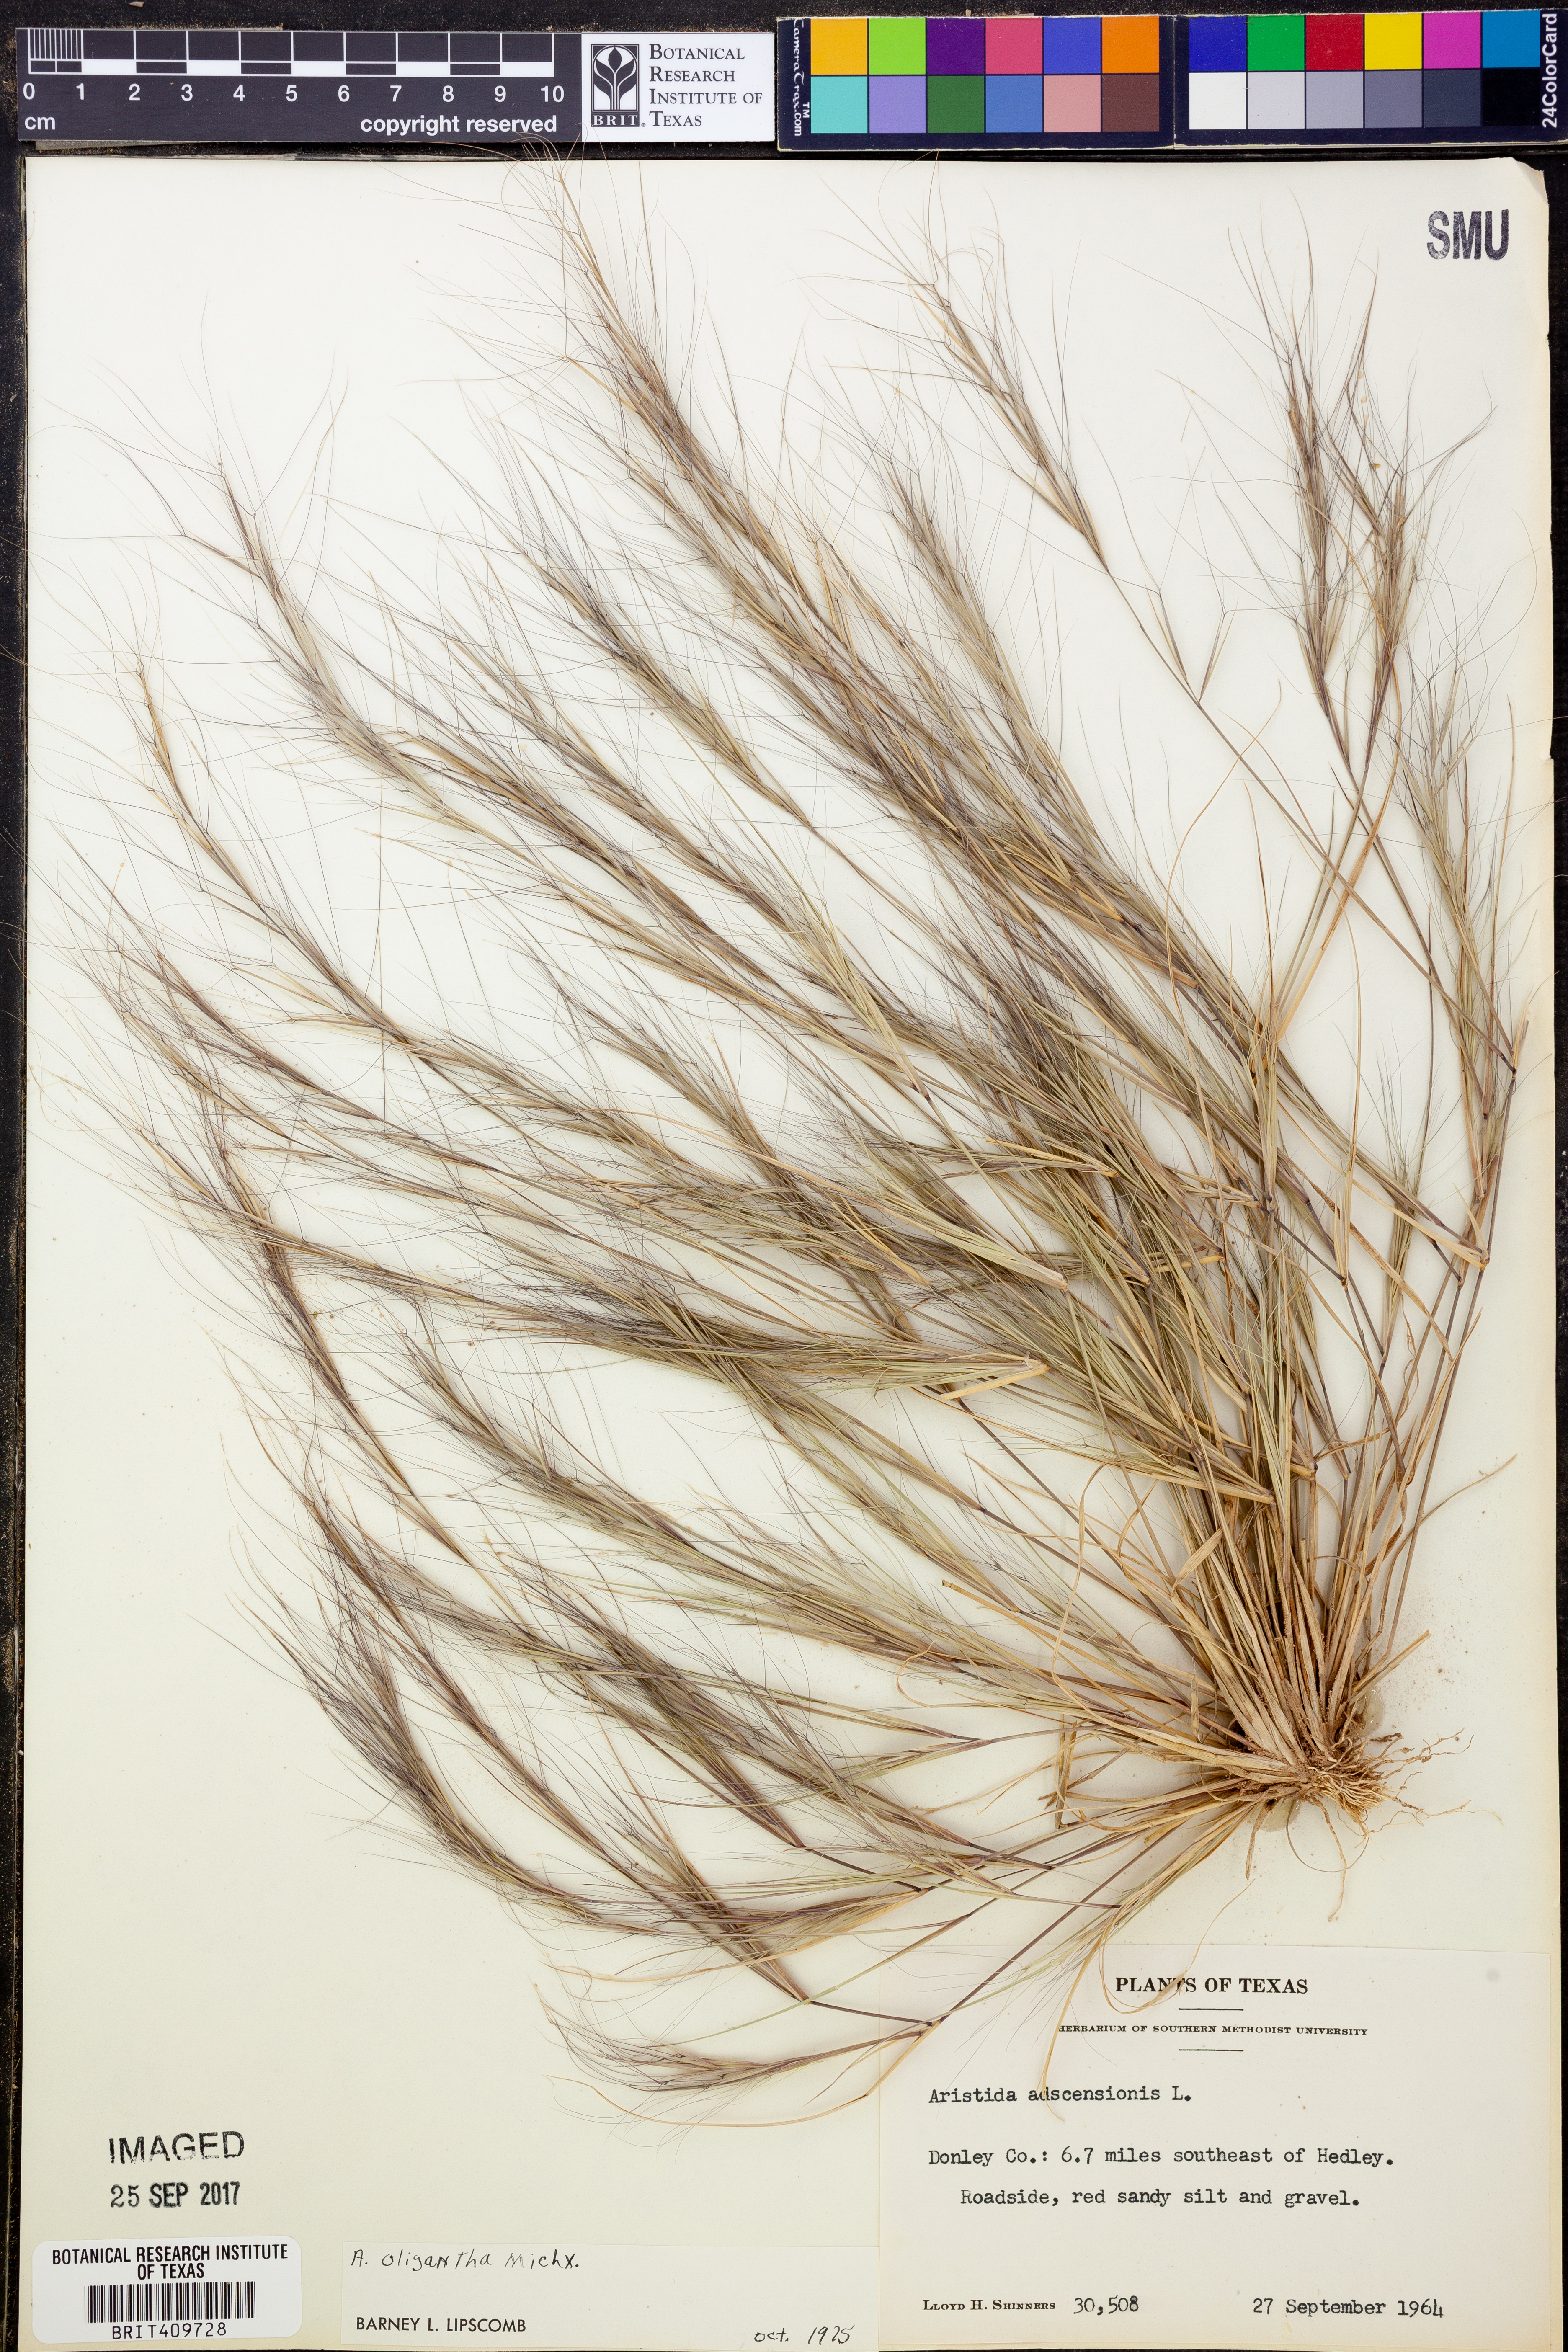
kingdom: Plantae
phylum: Tracheophyta
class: Liliopsida
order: Poales
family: Poaceae
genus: Aristida
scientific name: Aristida oligantha
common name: Few-flowered aristida
